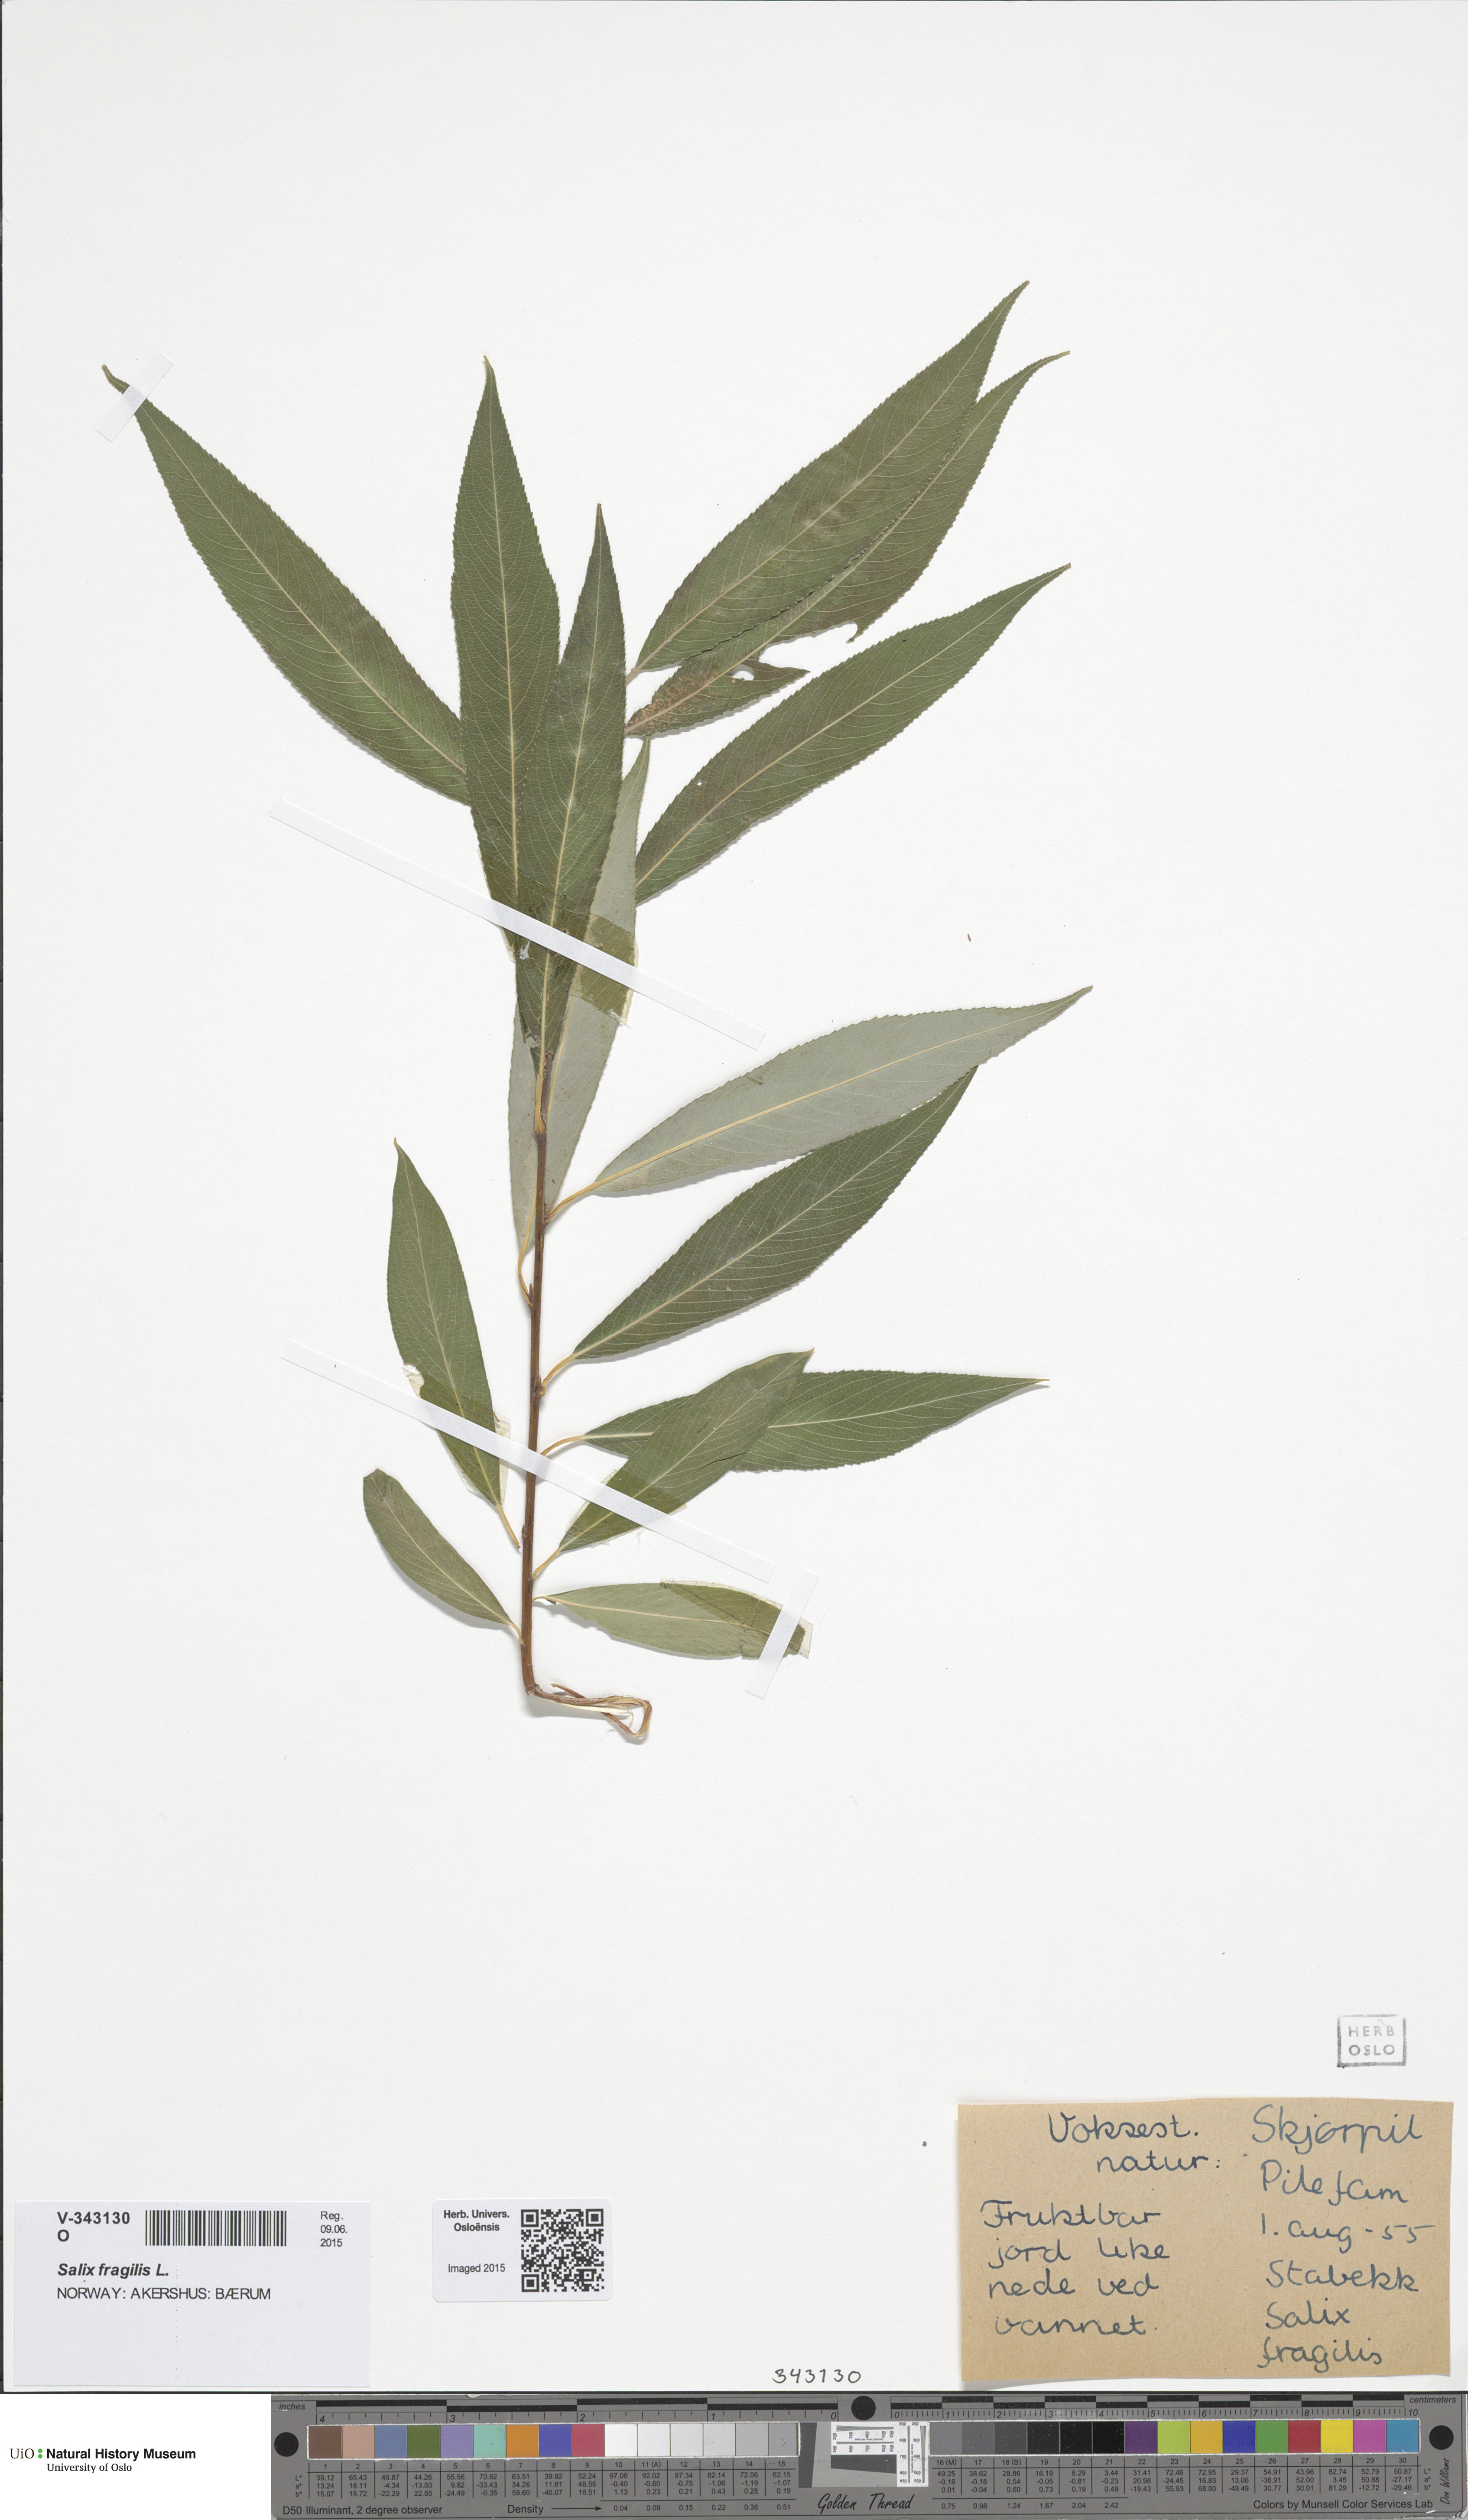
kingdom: Plantae
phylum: Tracheophyta
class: Magnoliopsida
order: Malpighiales
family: Salicaceae
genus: Salix
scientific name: Salix fragilis
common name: Crack willow
